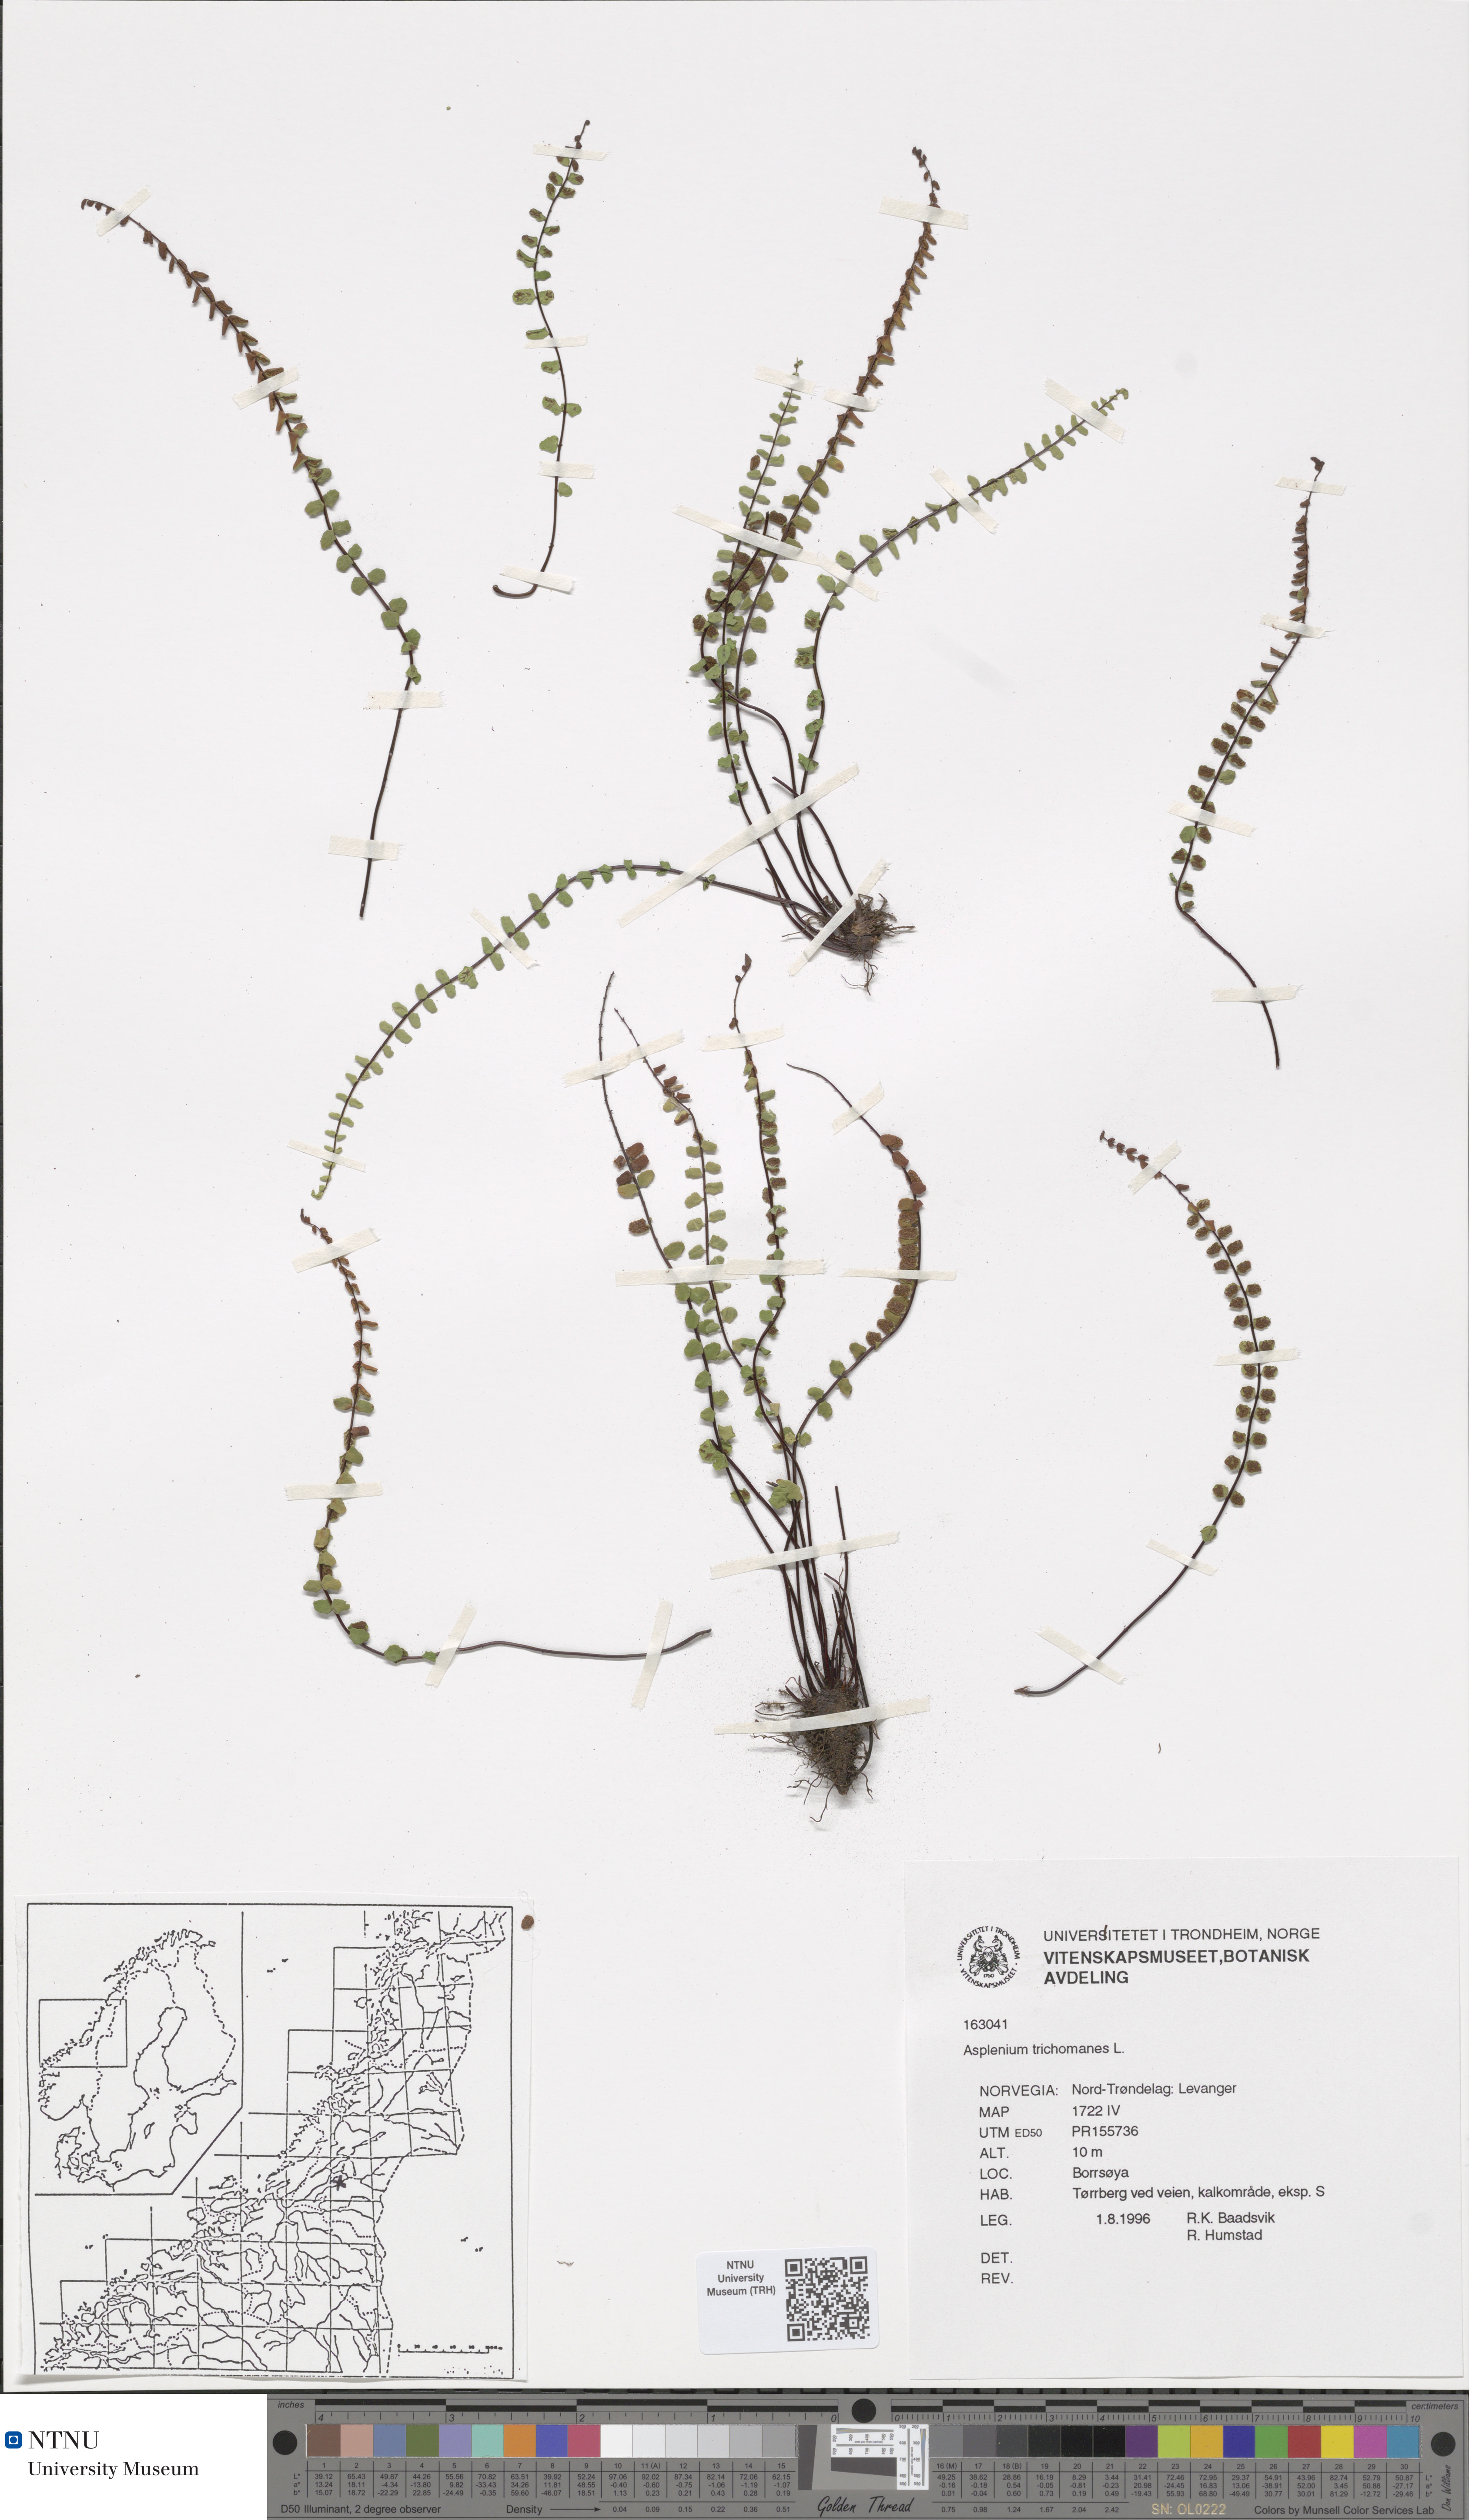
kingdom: Plantae
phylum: Tracheophyta
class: Polypodiopsida
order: Polypodiales
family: Aspleniaceae
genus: Asplenium
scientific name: Asplenium trichomanes
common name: Maidenhair spleenwort
